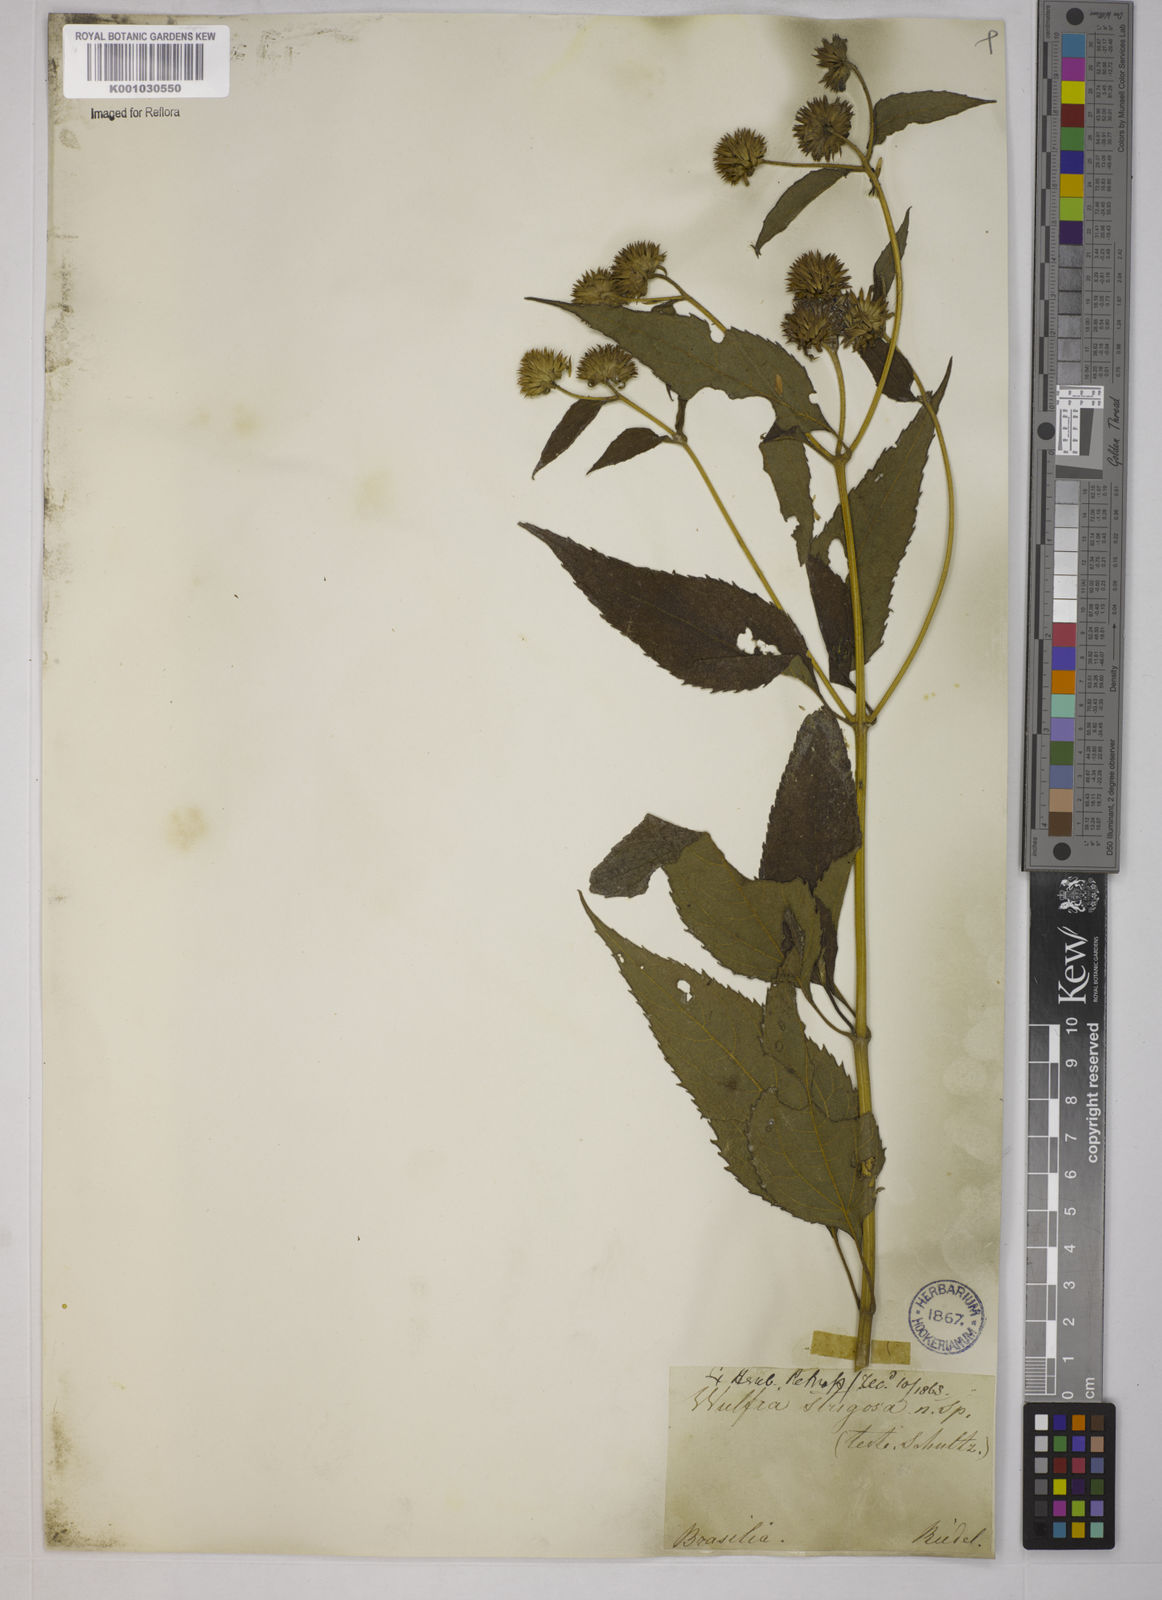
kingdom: Plantae
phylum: Tracheophyta
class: Magnoliopsida
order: Asterales
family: Asteraceae
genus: Tilesia
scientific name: Tilesia baccata
